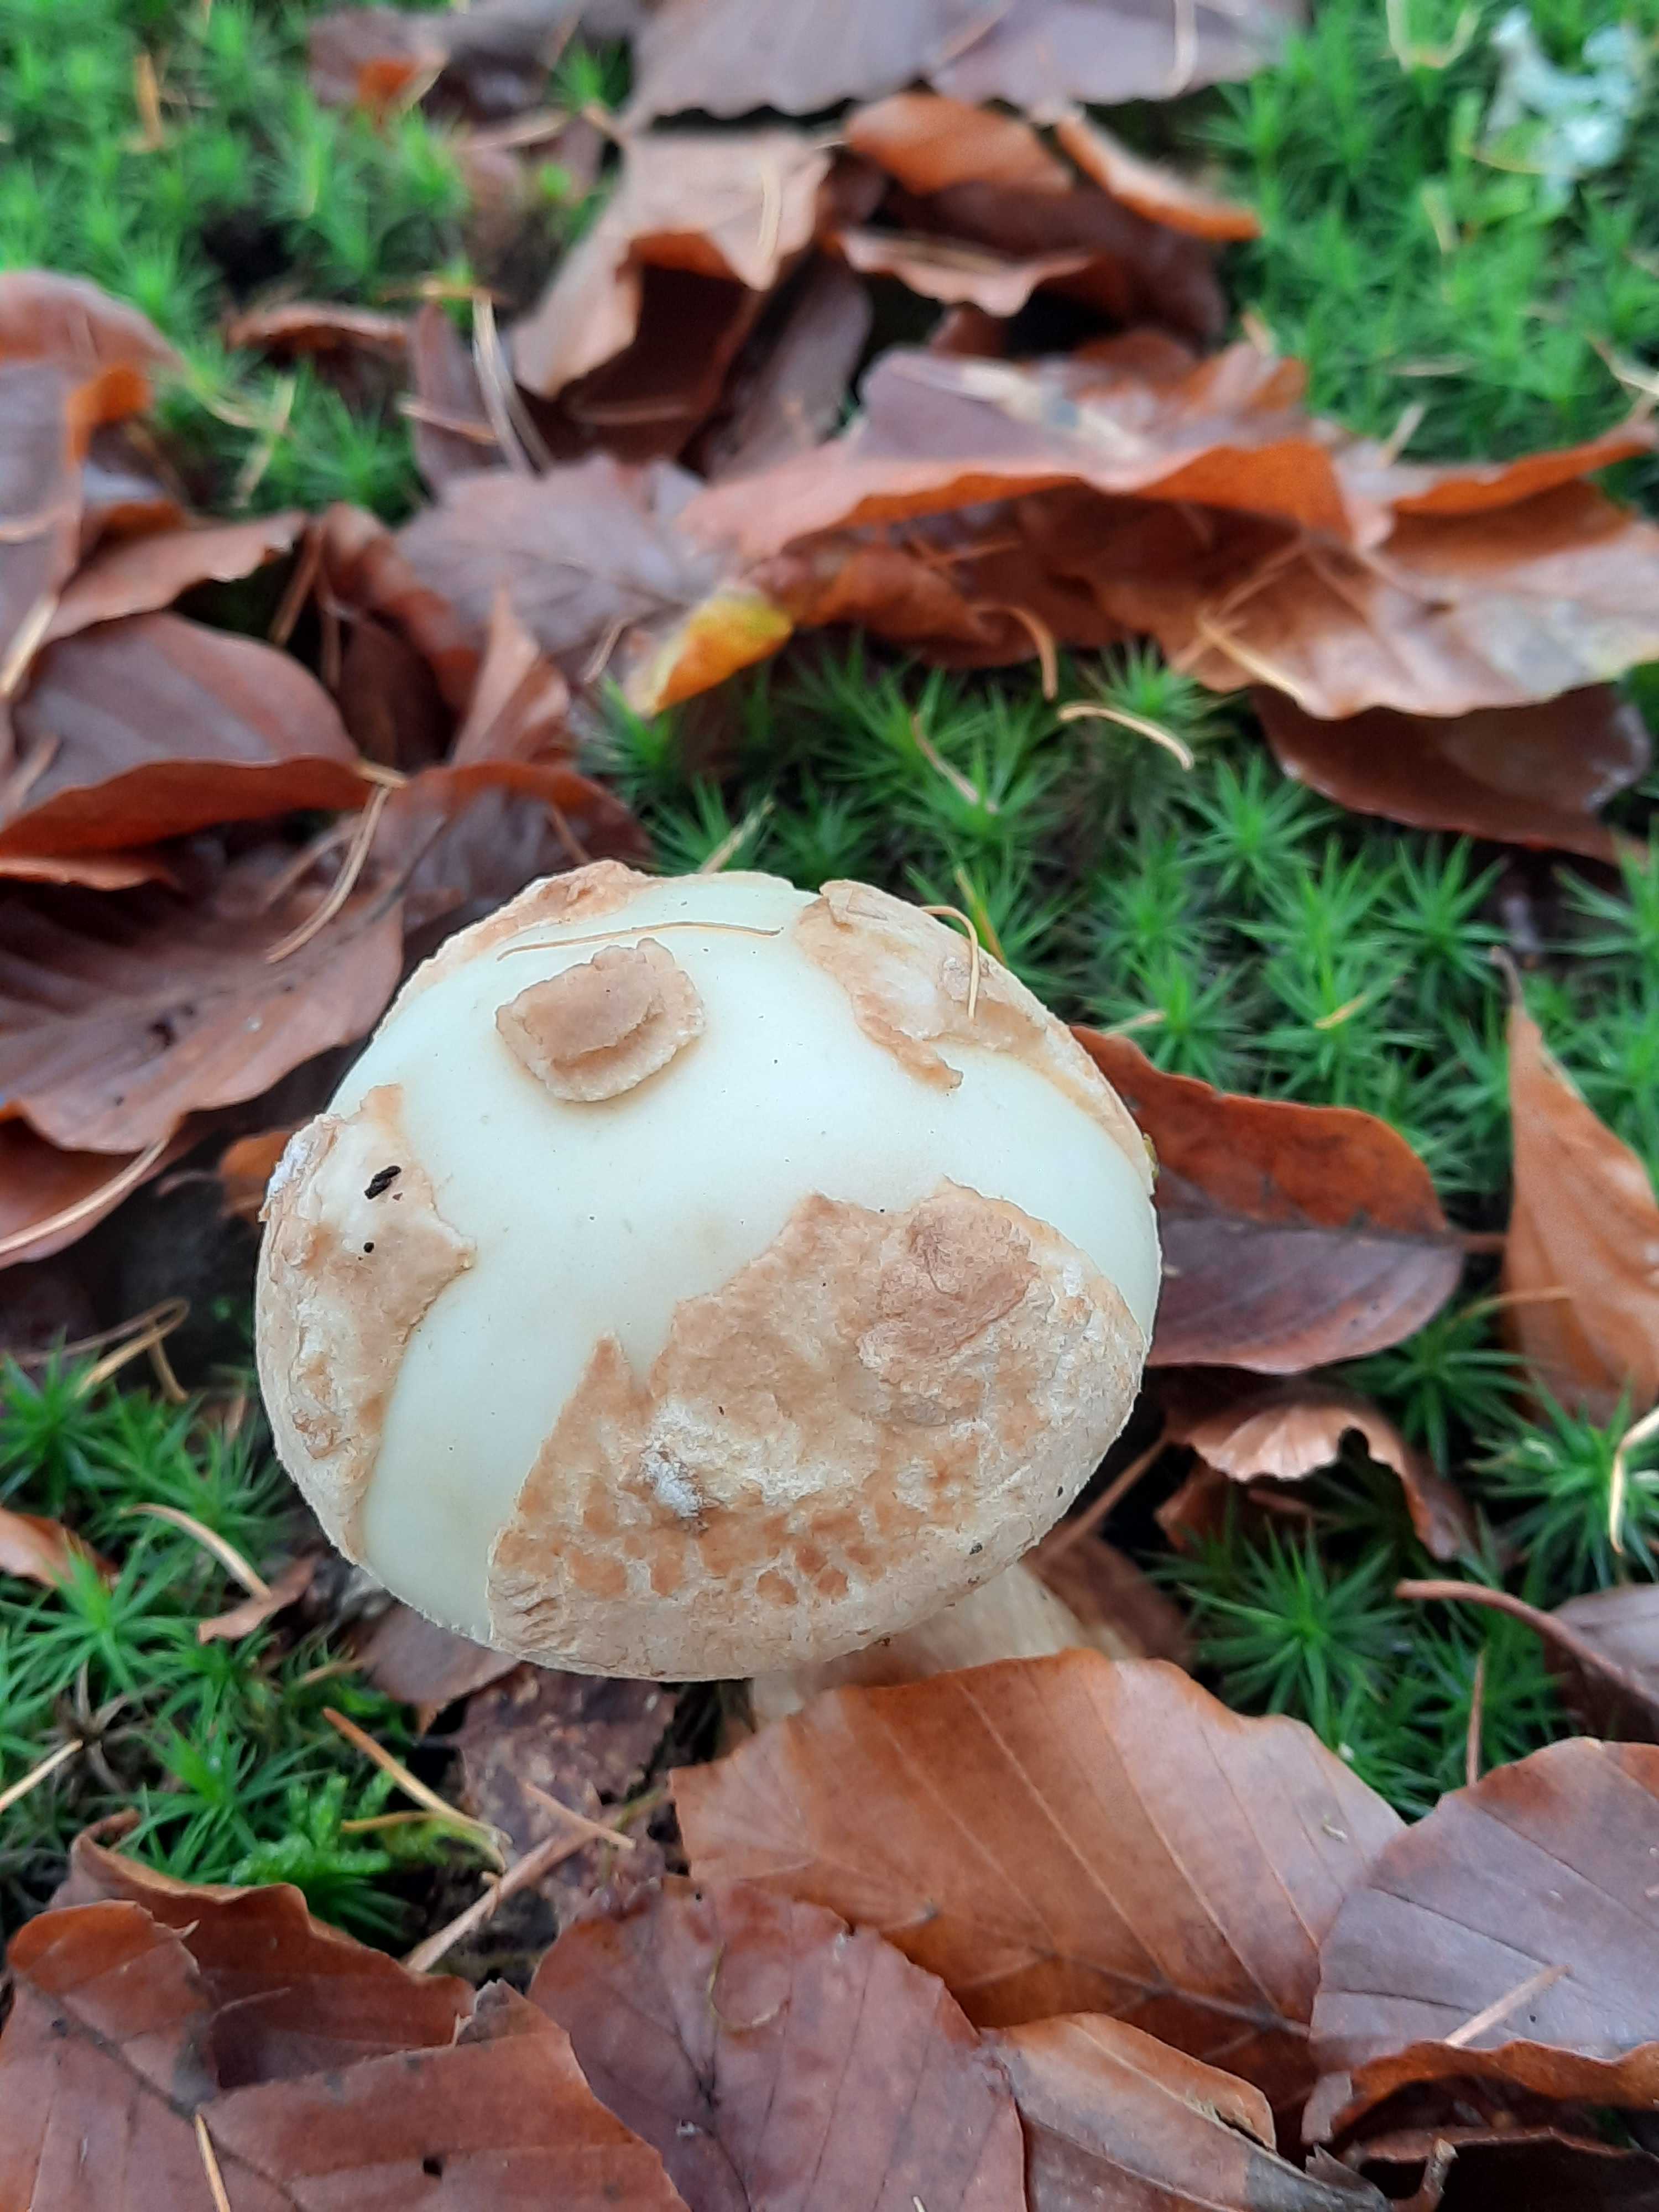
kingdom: Fungi
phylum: Basidiomycota
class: Agaricomycetes
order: Agaricales
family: Amanitaceae
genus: Amanita
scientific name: Amanita citrina
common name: kugleknoldet fluesvamp
